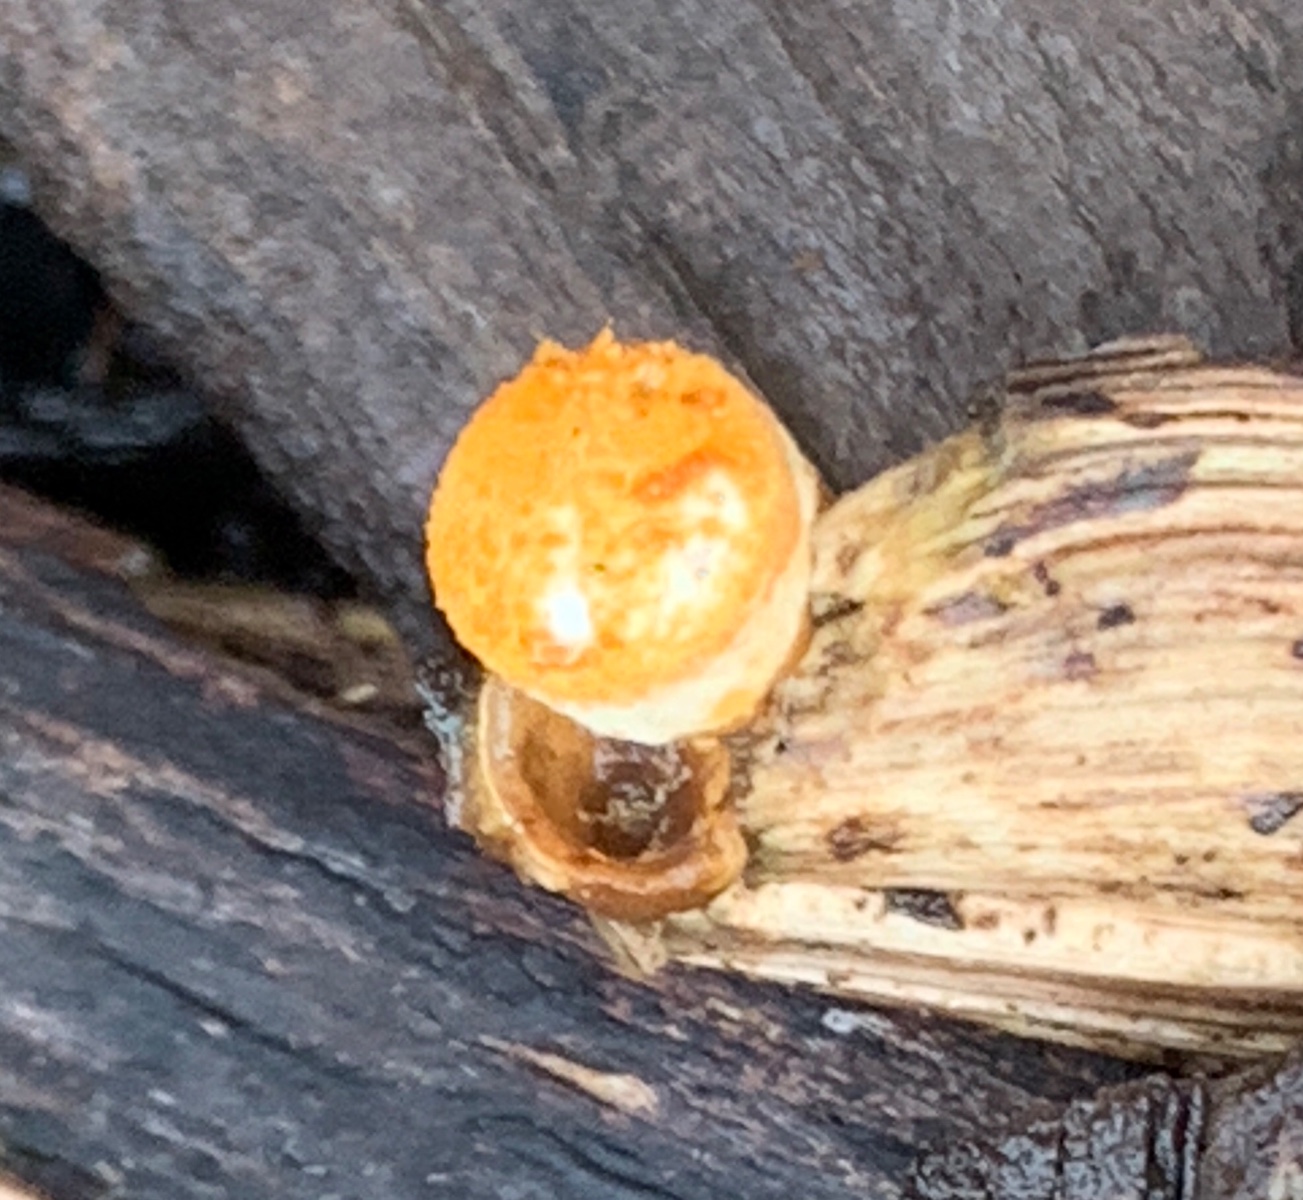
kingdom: Fungi
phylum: Basidiomycota
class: Agaricomycetes
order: Agaricales
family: Nidulariaceae
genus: Crucibulum
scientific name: Crucibulum crucibuliforme
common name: krukkesvamp
